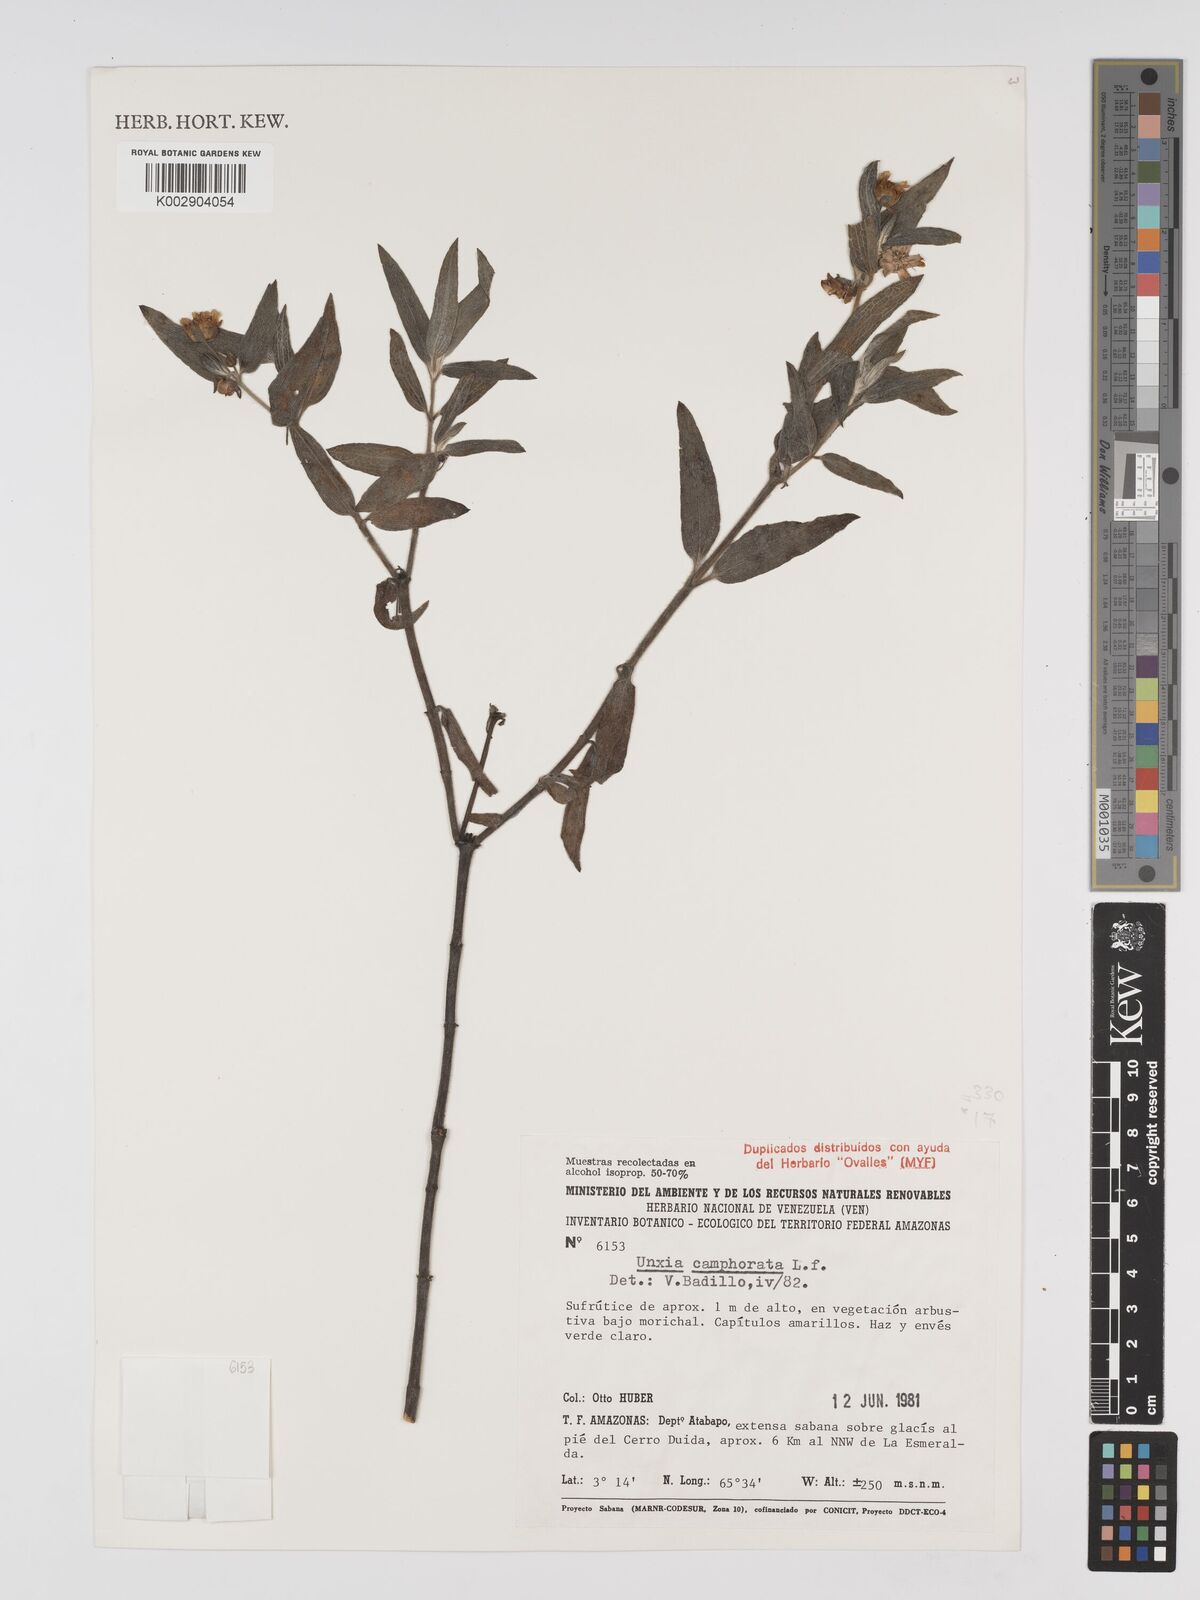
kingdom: Plantae
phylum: Tracheophyta
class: Magnoliopsida
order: Asterales
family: Asteraceae
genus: Unxia
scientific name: Unxia camphorata
